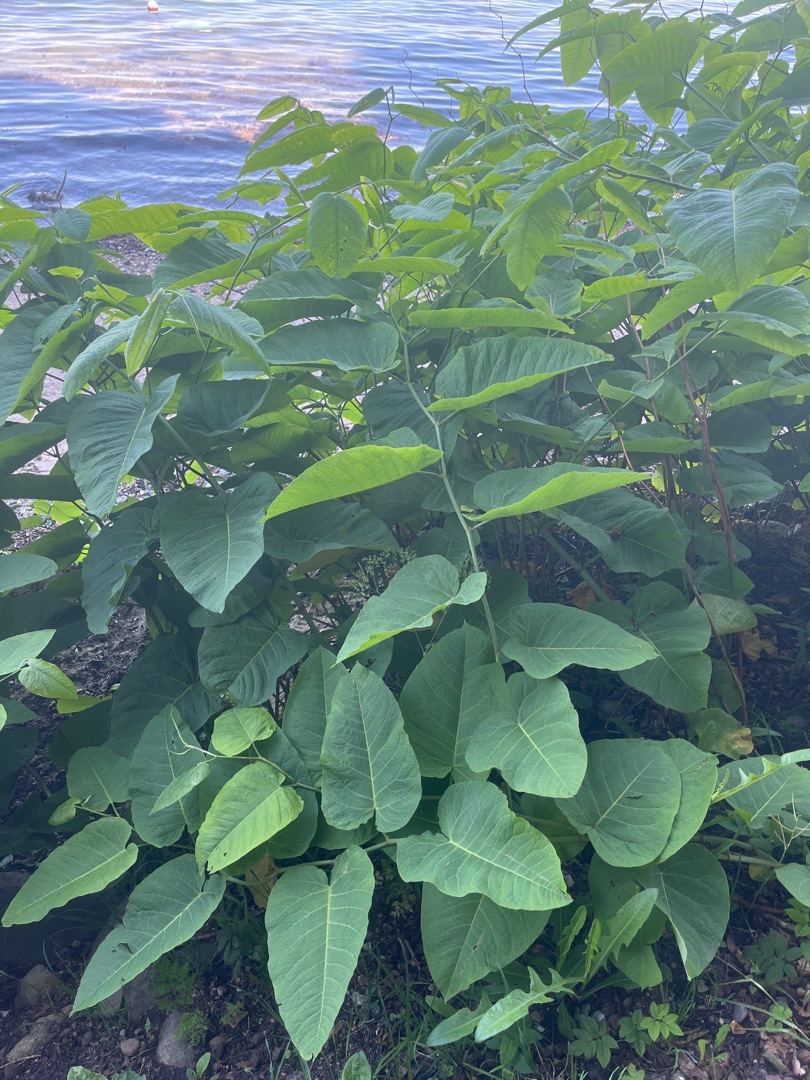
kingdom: Plantae
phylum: Tracheophyta
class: Magnoliopsida
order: Caryophyllales
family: Polygonaceae
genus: Reynoutria
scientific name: Reynoutria sachalinensis
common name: Kæmpe-pileurt
